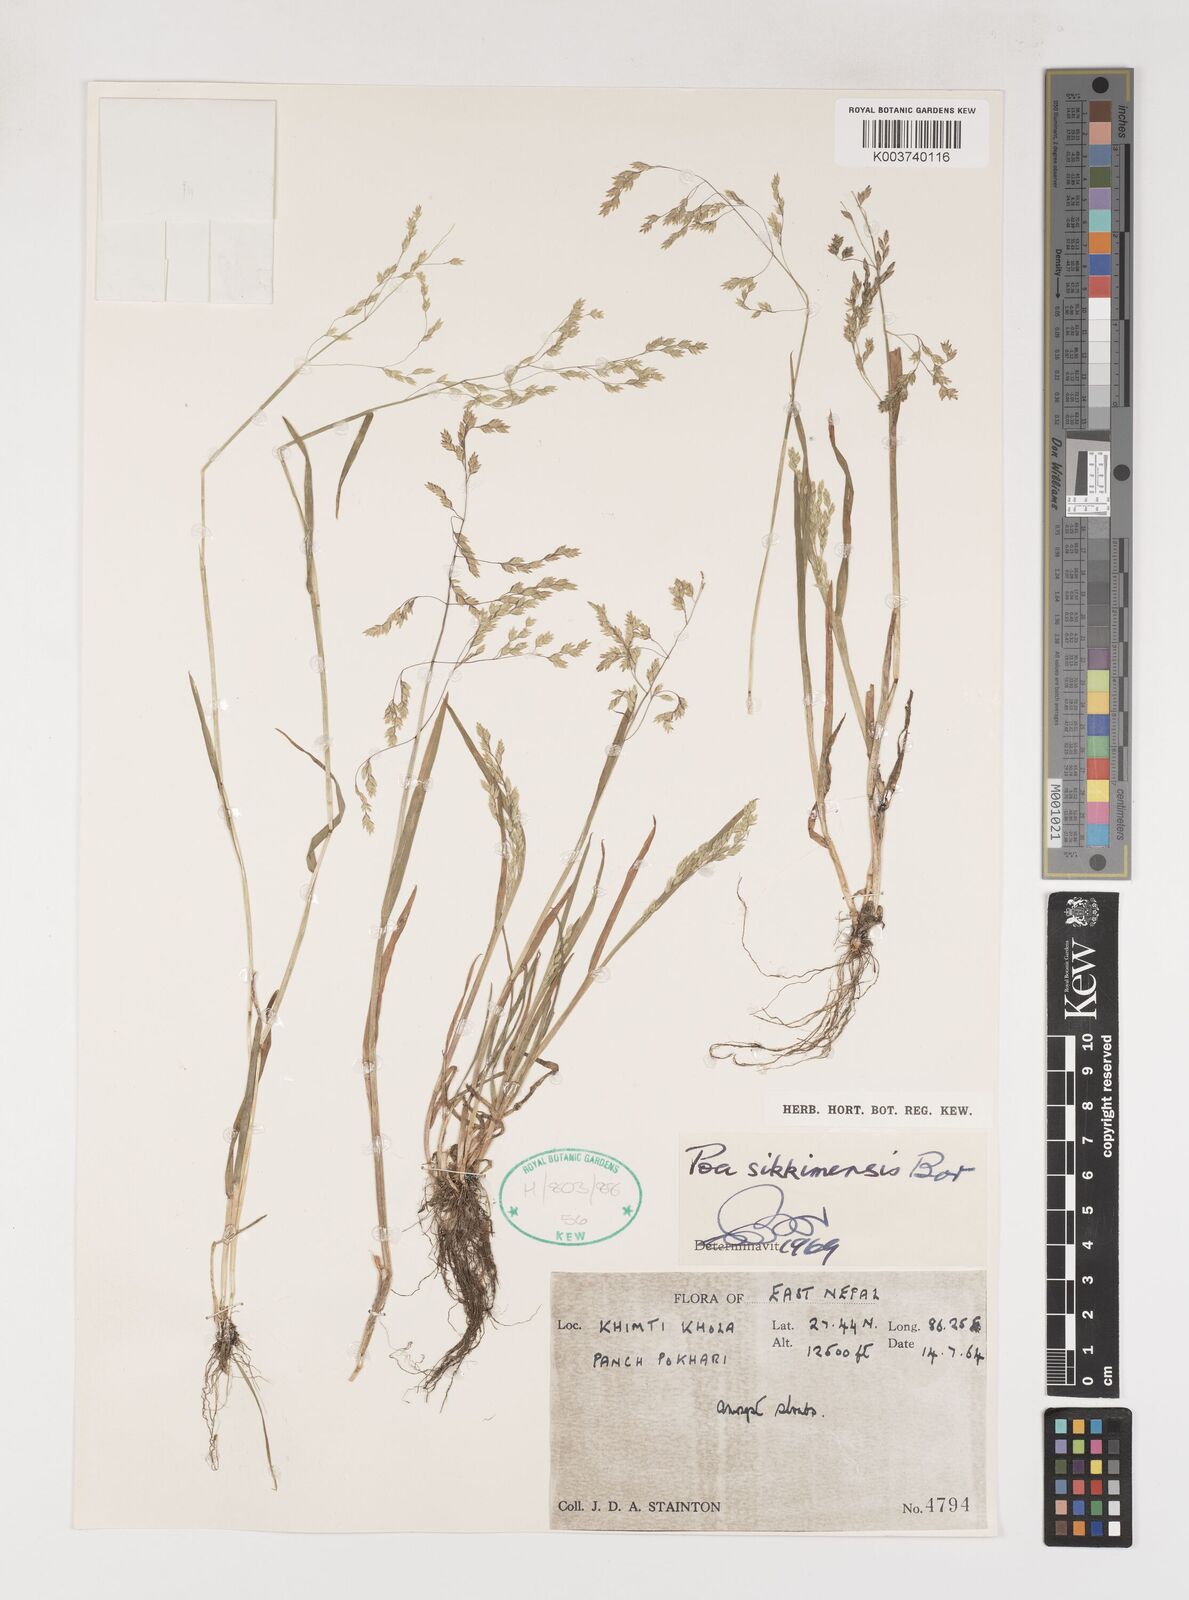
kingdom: Plantae
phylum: Tracheophyta
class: Liliopsida
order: Poales
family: Poaceae
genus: Poa
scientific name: Poa sikkimensis
